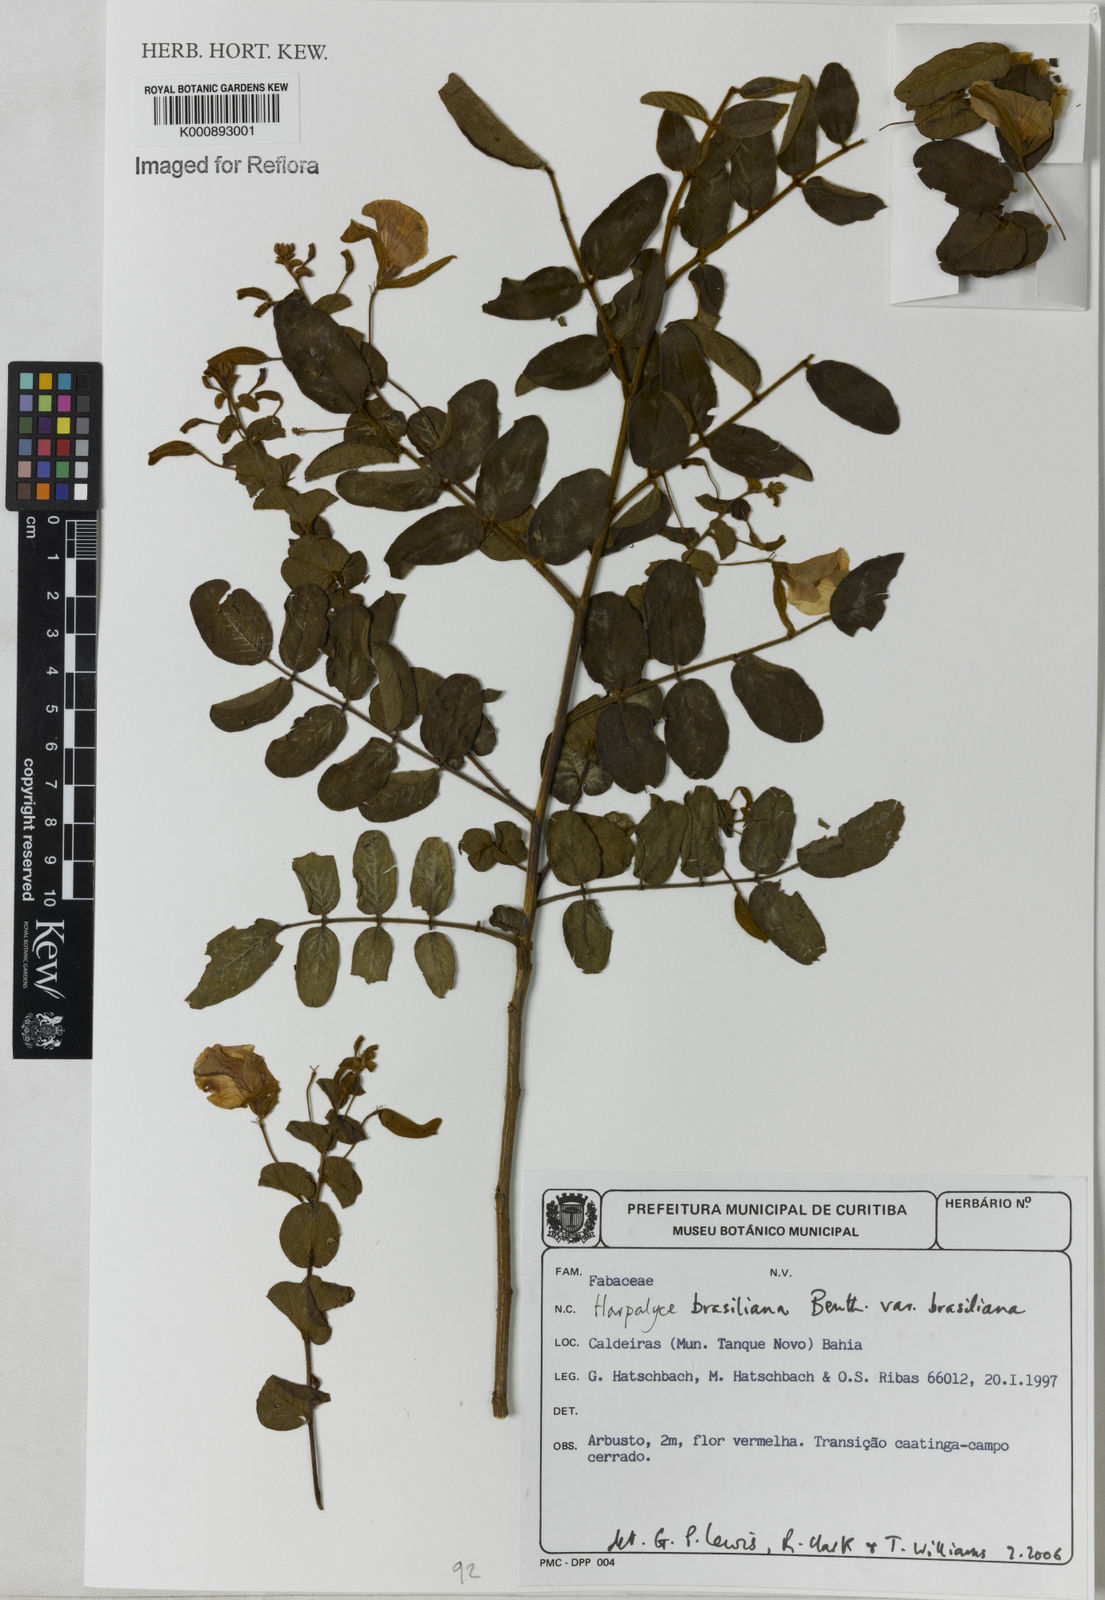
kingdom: Plantae
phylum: Tracheophyta
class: Magnoliopsida
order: Fabales
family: Fabaceae
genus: Harpalyce
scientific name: Harpalyce brasiliana
